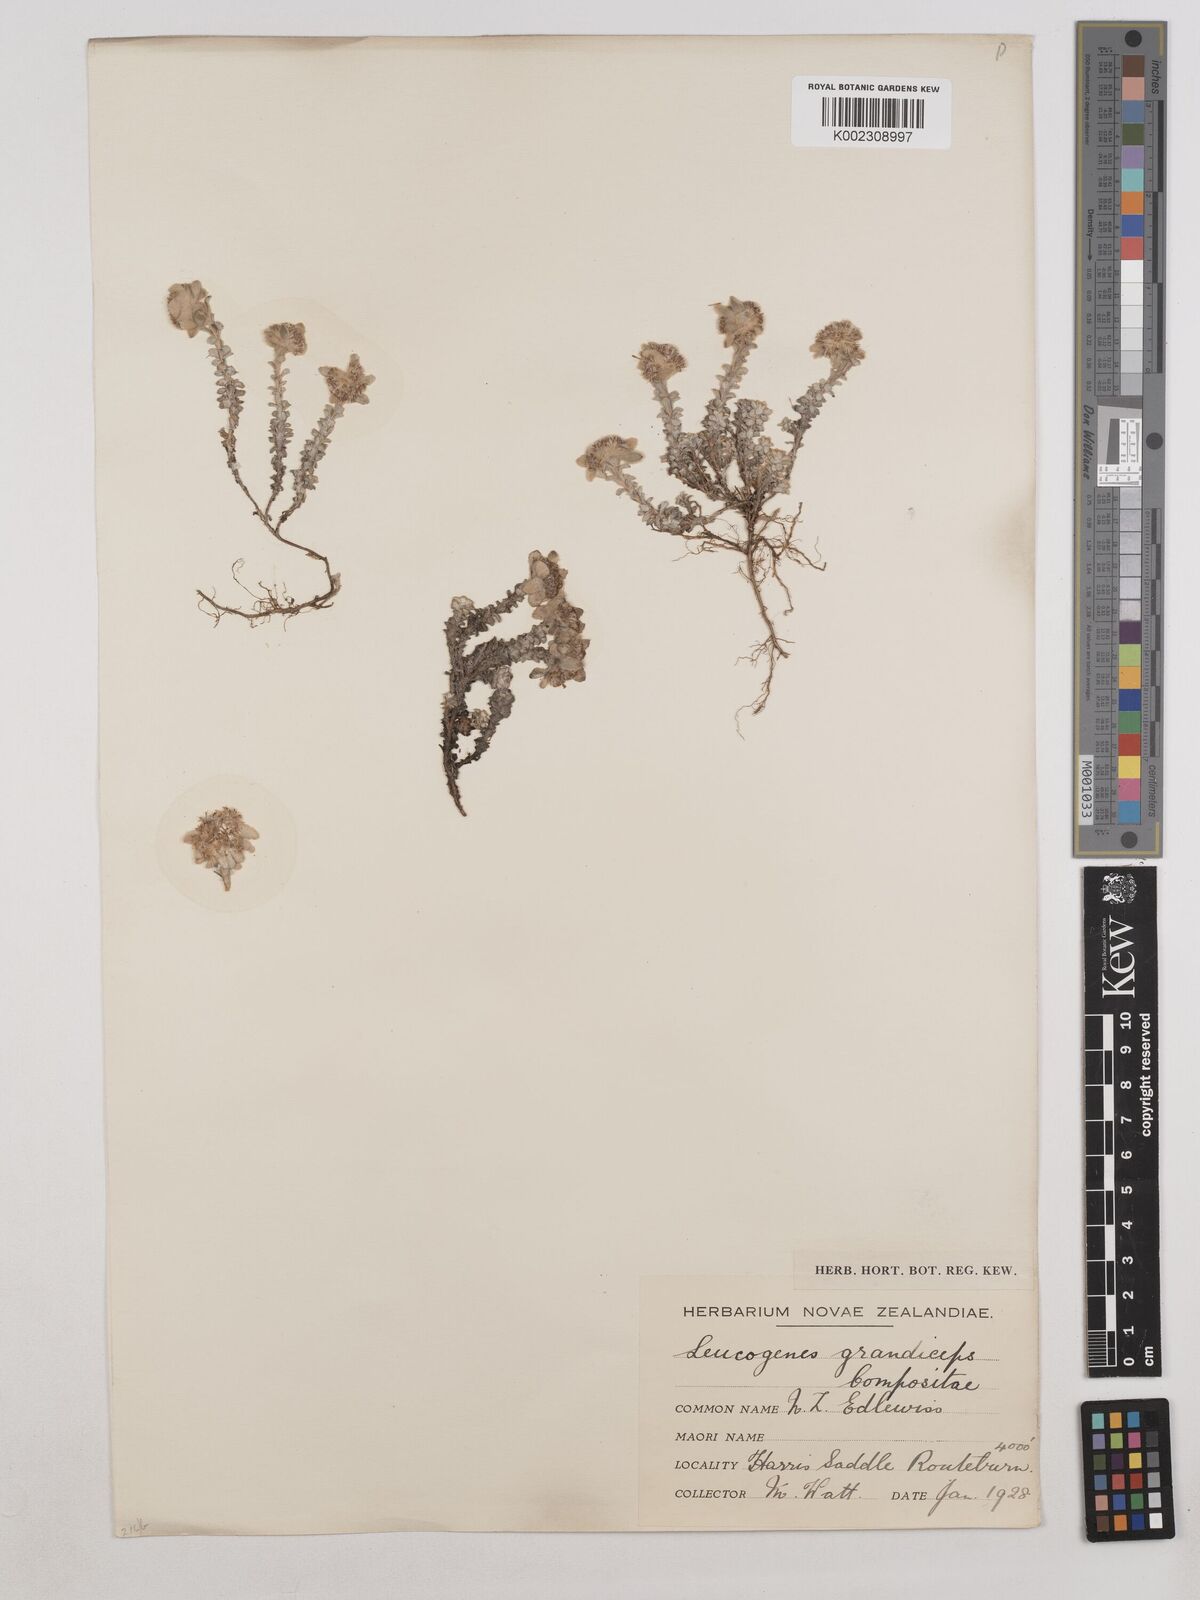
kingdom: Plantae
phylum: Tracheophyta
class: Magnoliopsida
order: Asterales
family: Asteraceae
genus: Leucogenes
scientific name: Leucogenes grandiceps
